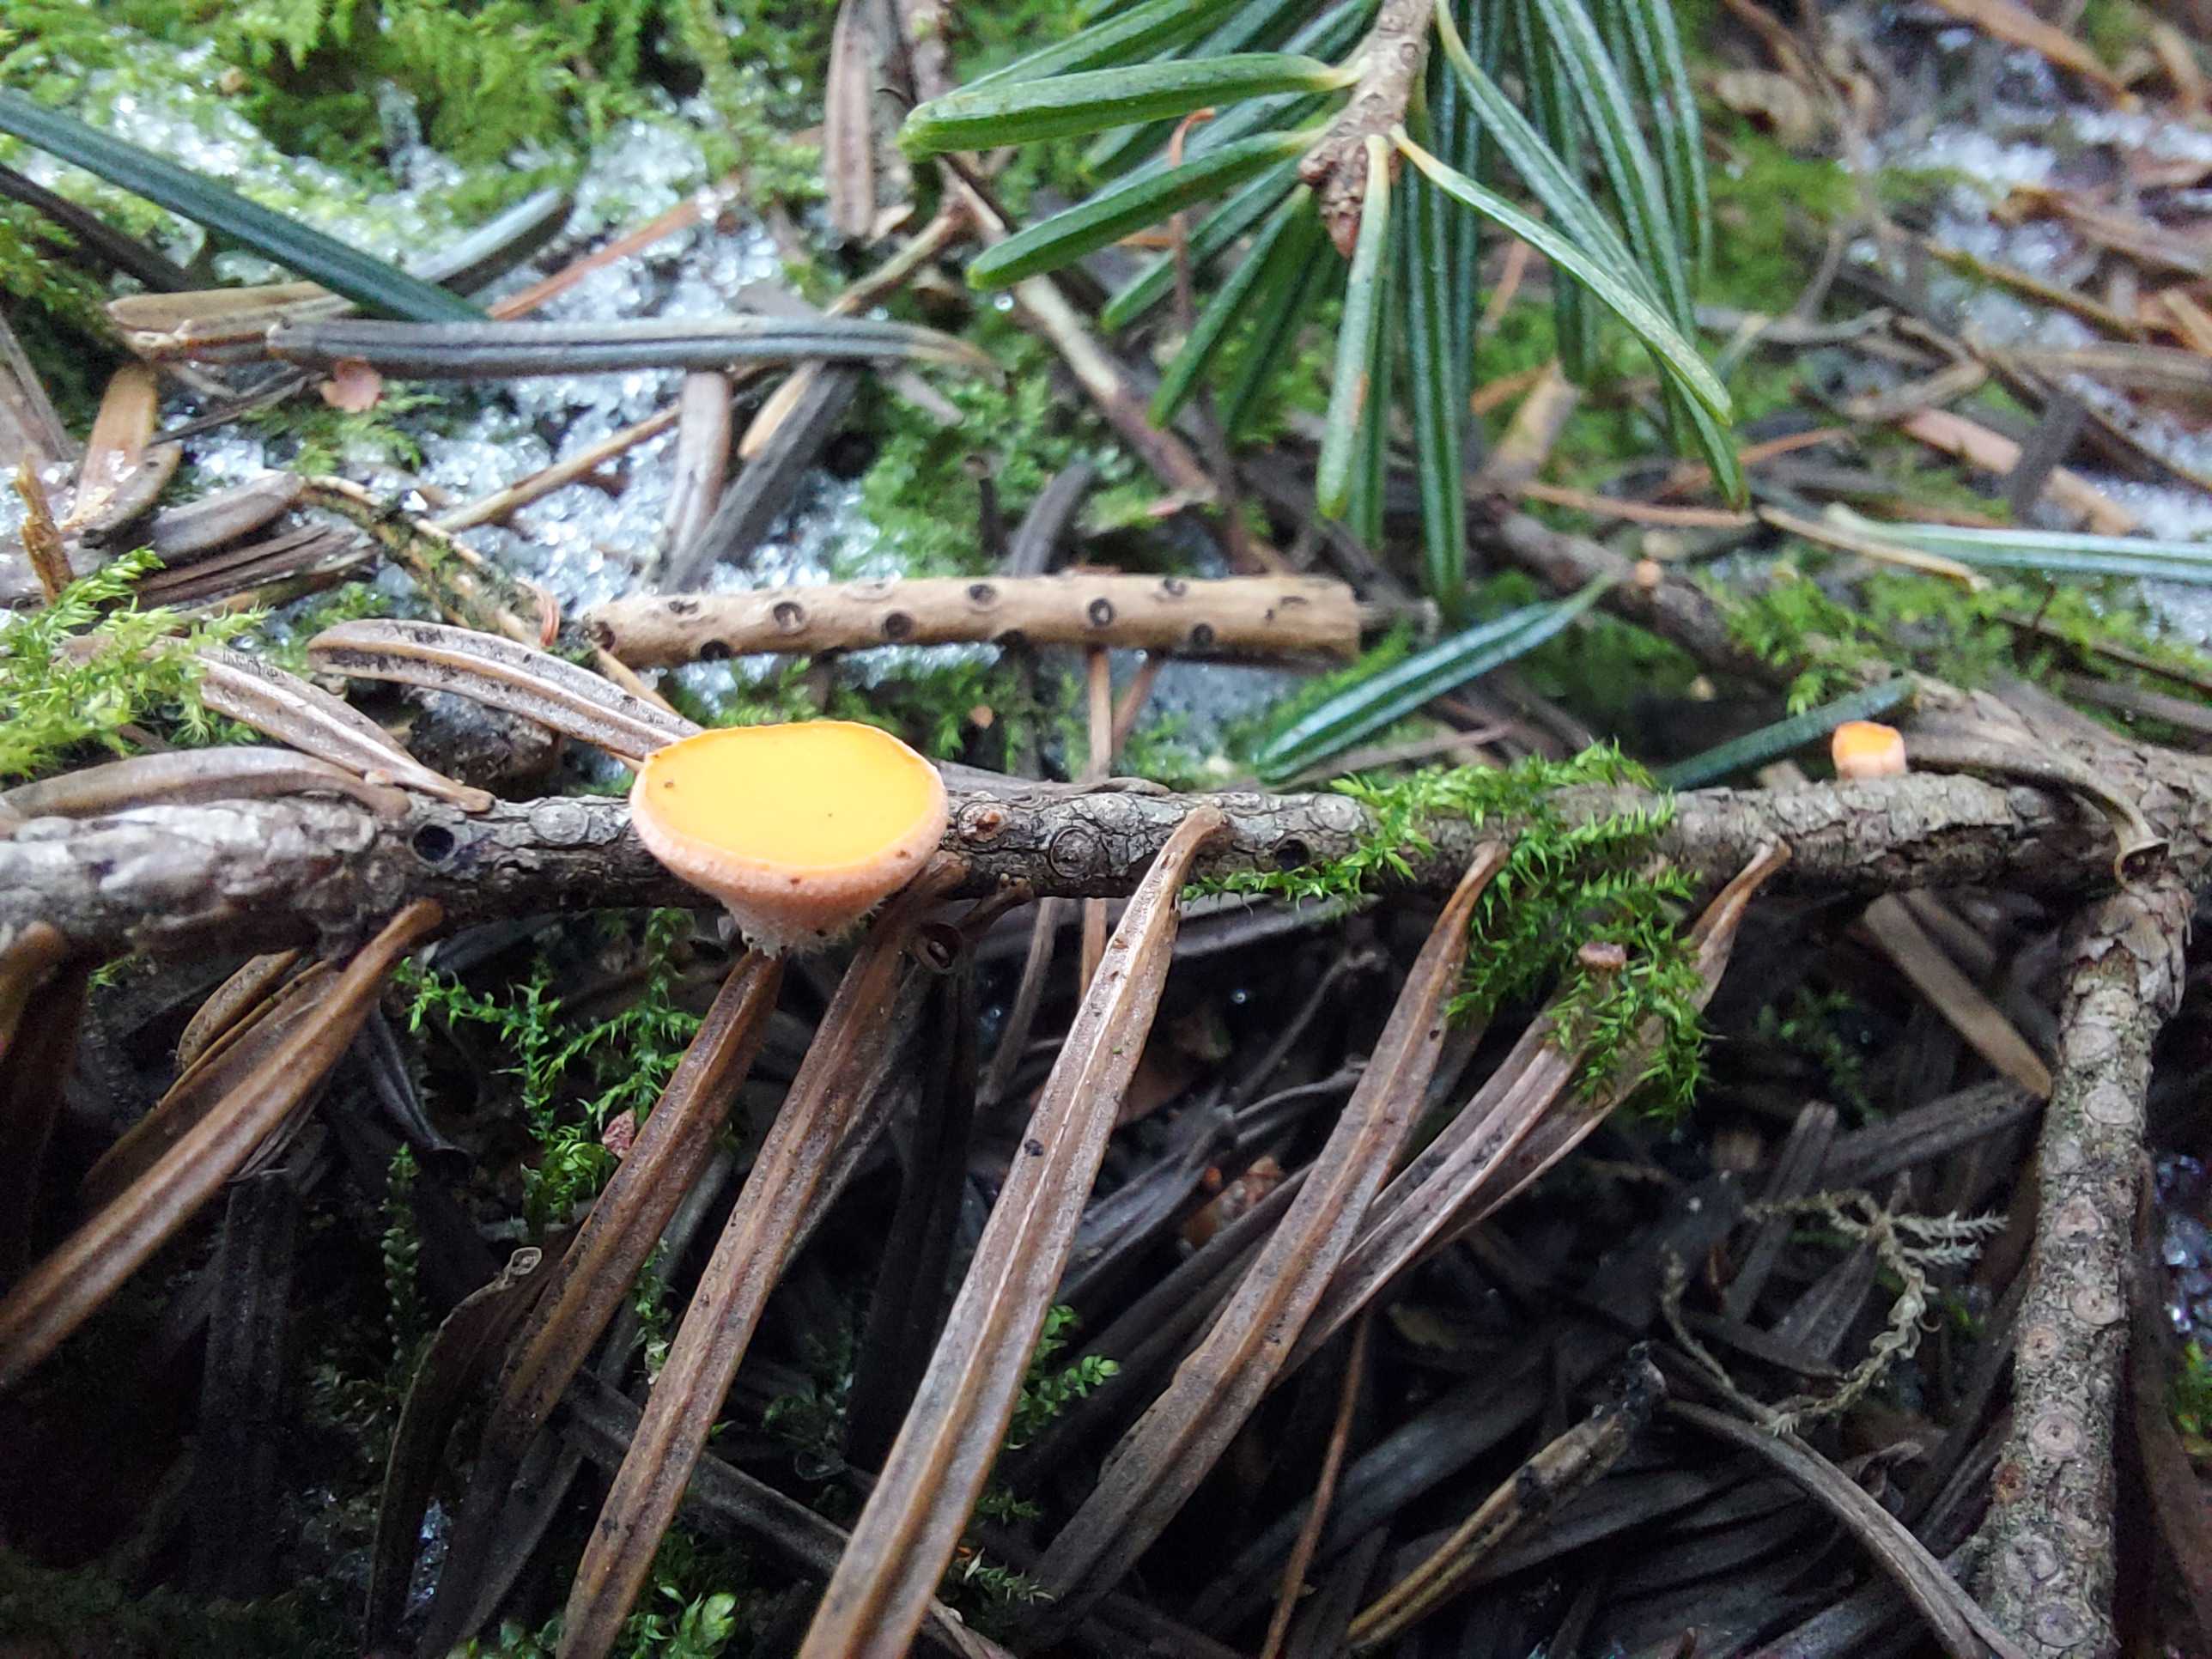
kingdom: Fungi
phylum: Ascomycota
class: Pezizomycetes
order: Pezizales
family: Sarcoscyphaceae
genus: Pithya
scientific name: Pithya vulgaris
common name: stor dukatbæger
